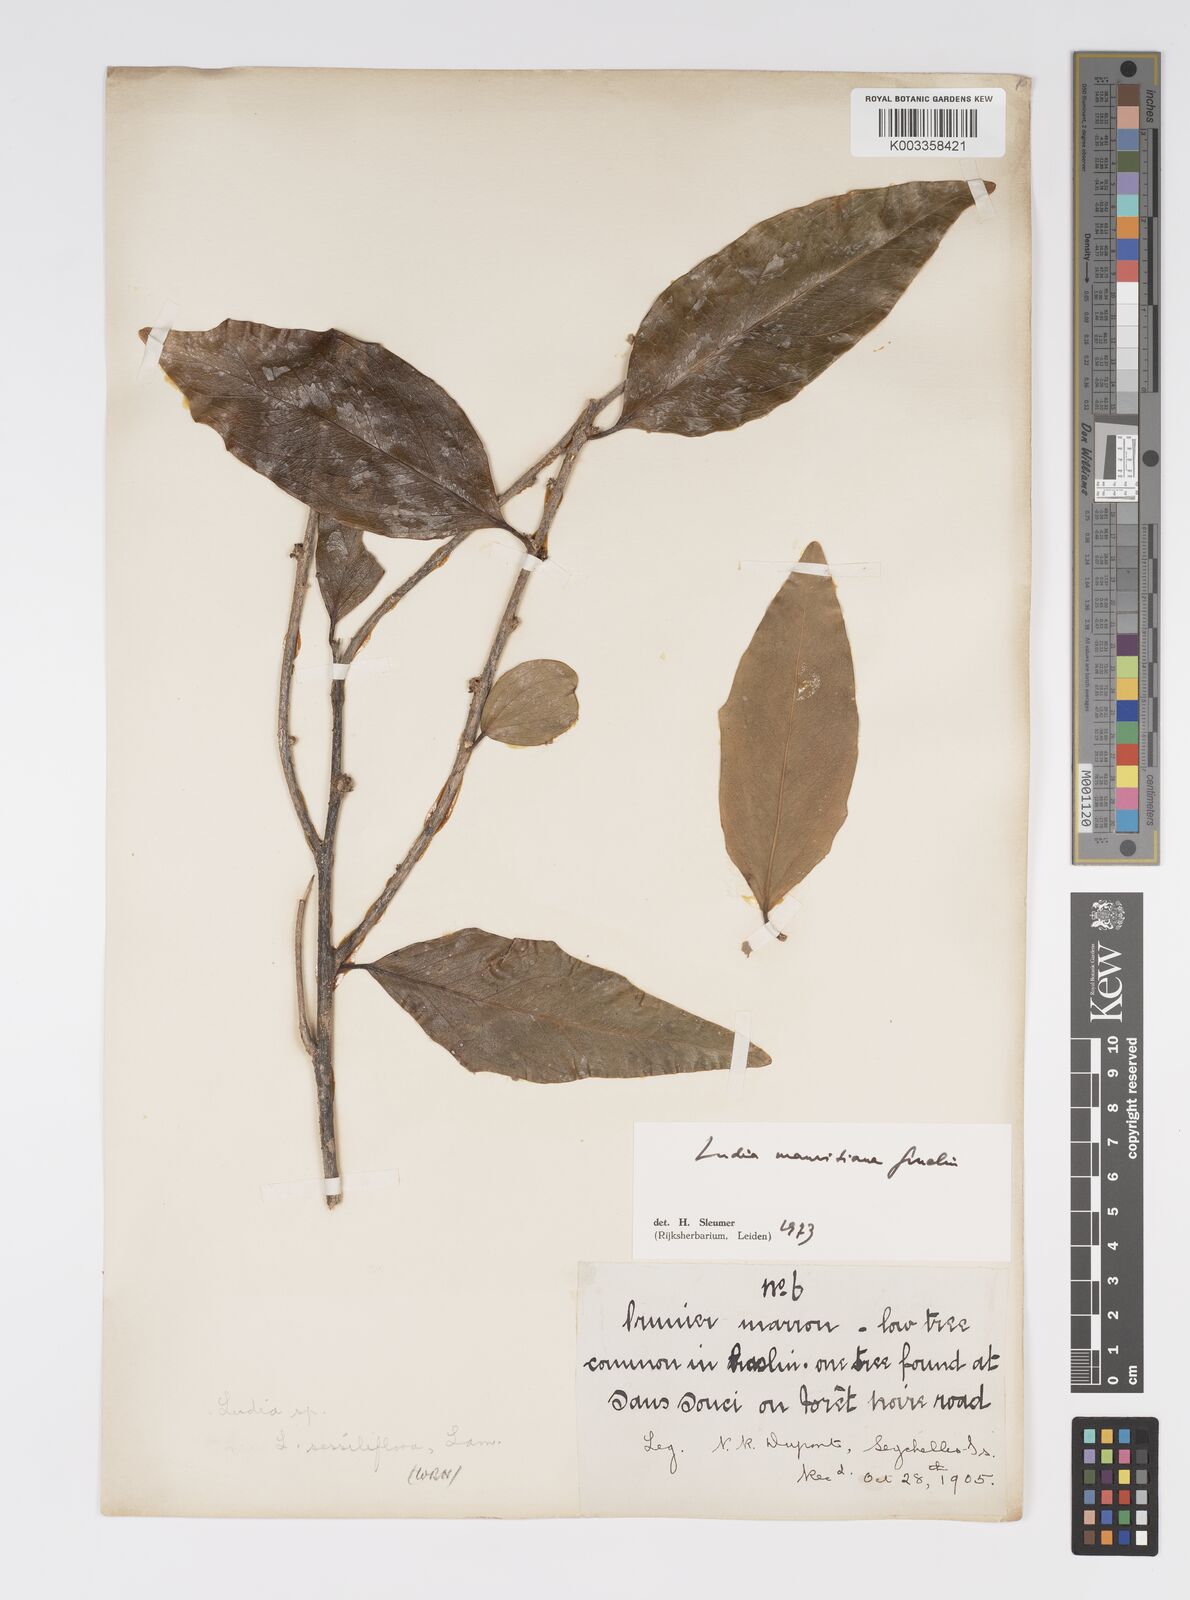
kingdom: Plantae
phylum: Tracheophyta
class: Magnoliopsida
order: Malpighiales
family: Salicaceae
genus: Ludia
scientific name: Ludia mauritiana
